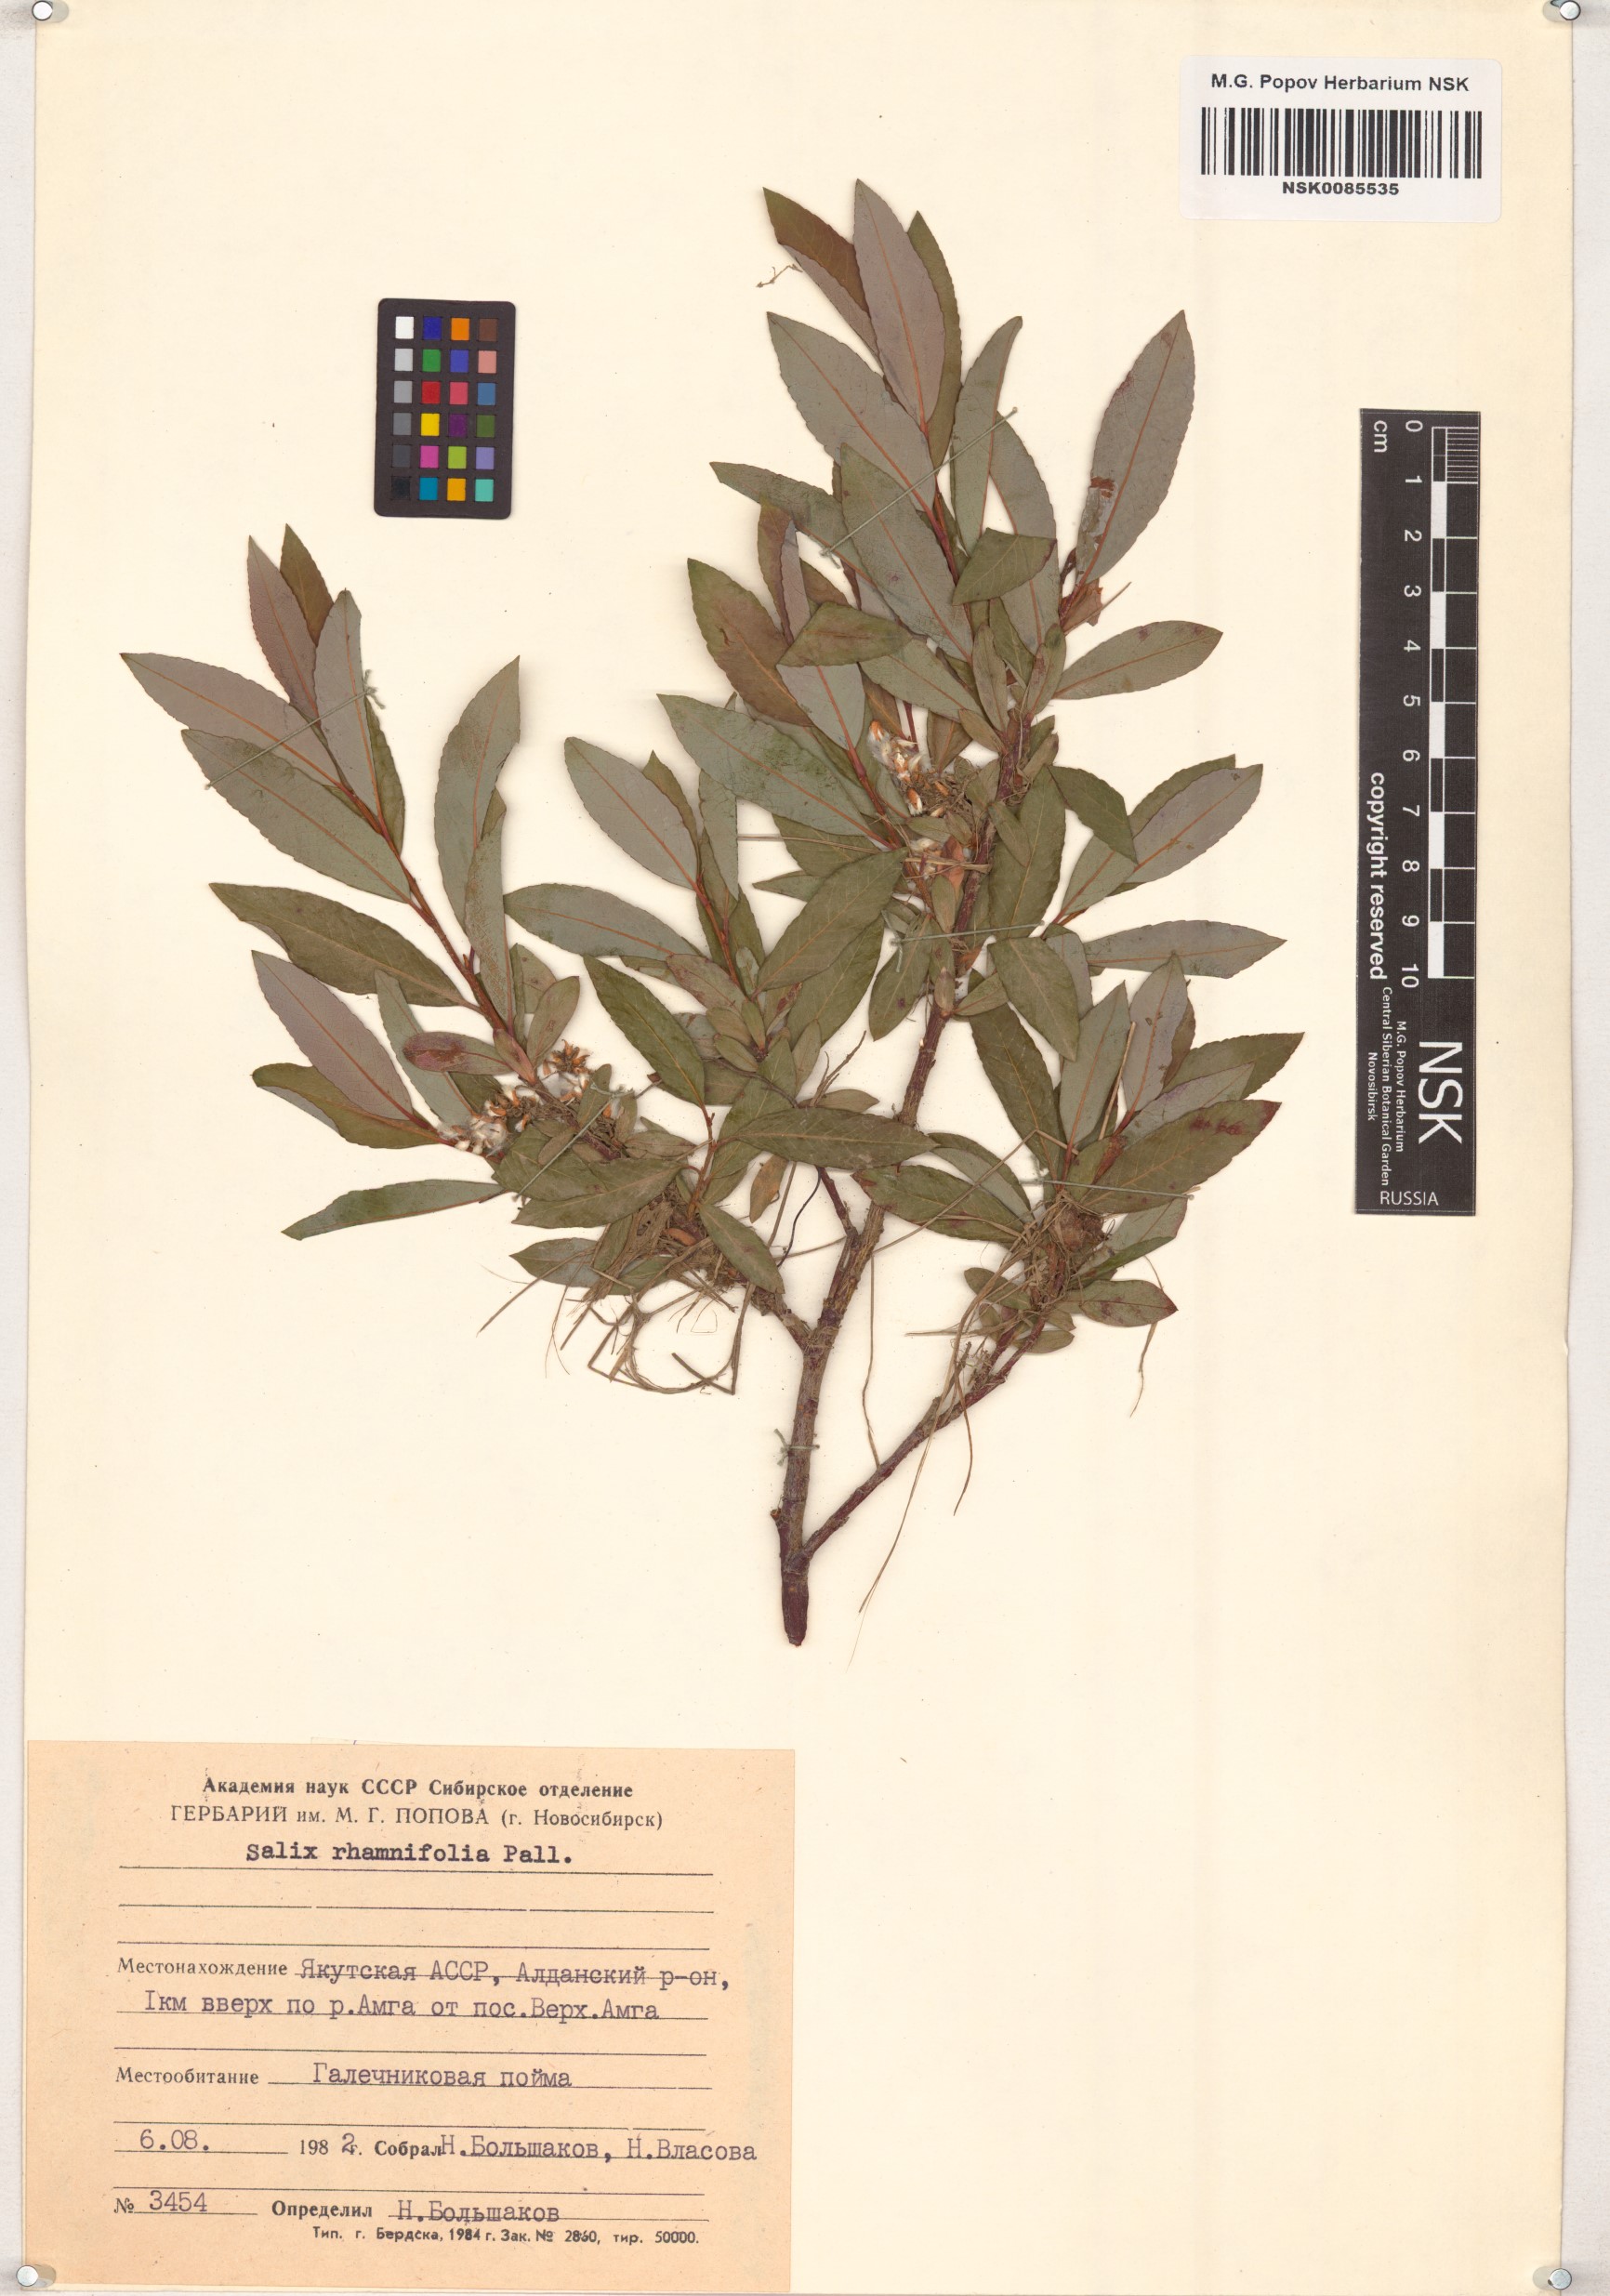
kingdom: Plantae
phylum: Tracheophyta
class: Magnoliopsida
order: Malpighiales
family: Salicaceae
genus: Salix
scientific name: Salix rhamnifolia
